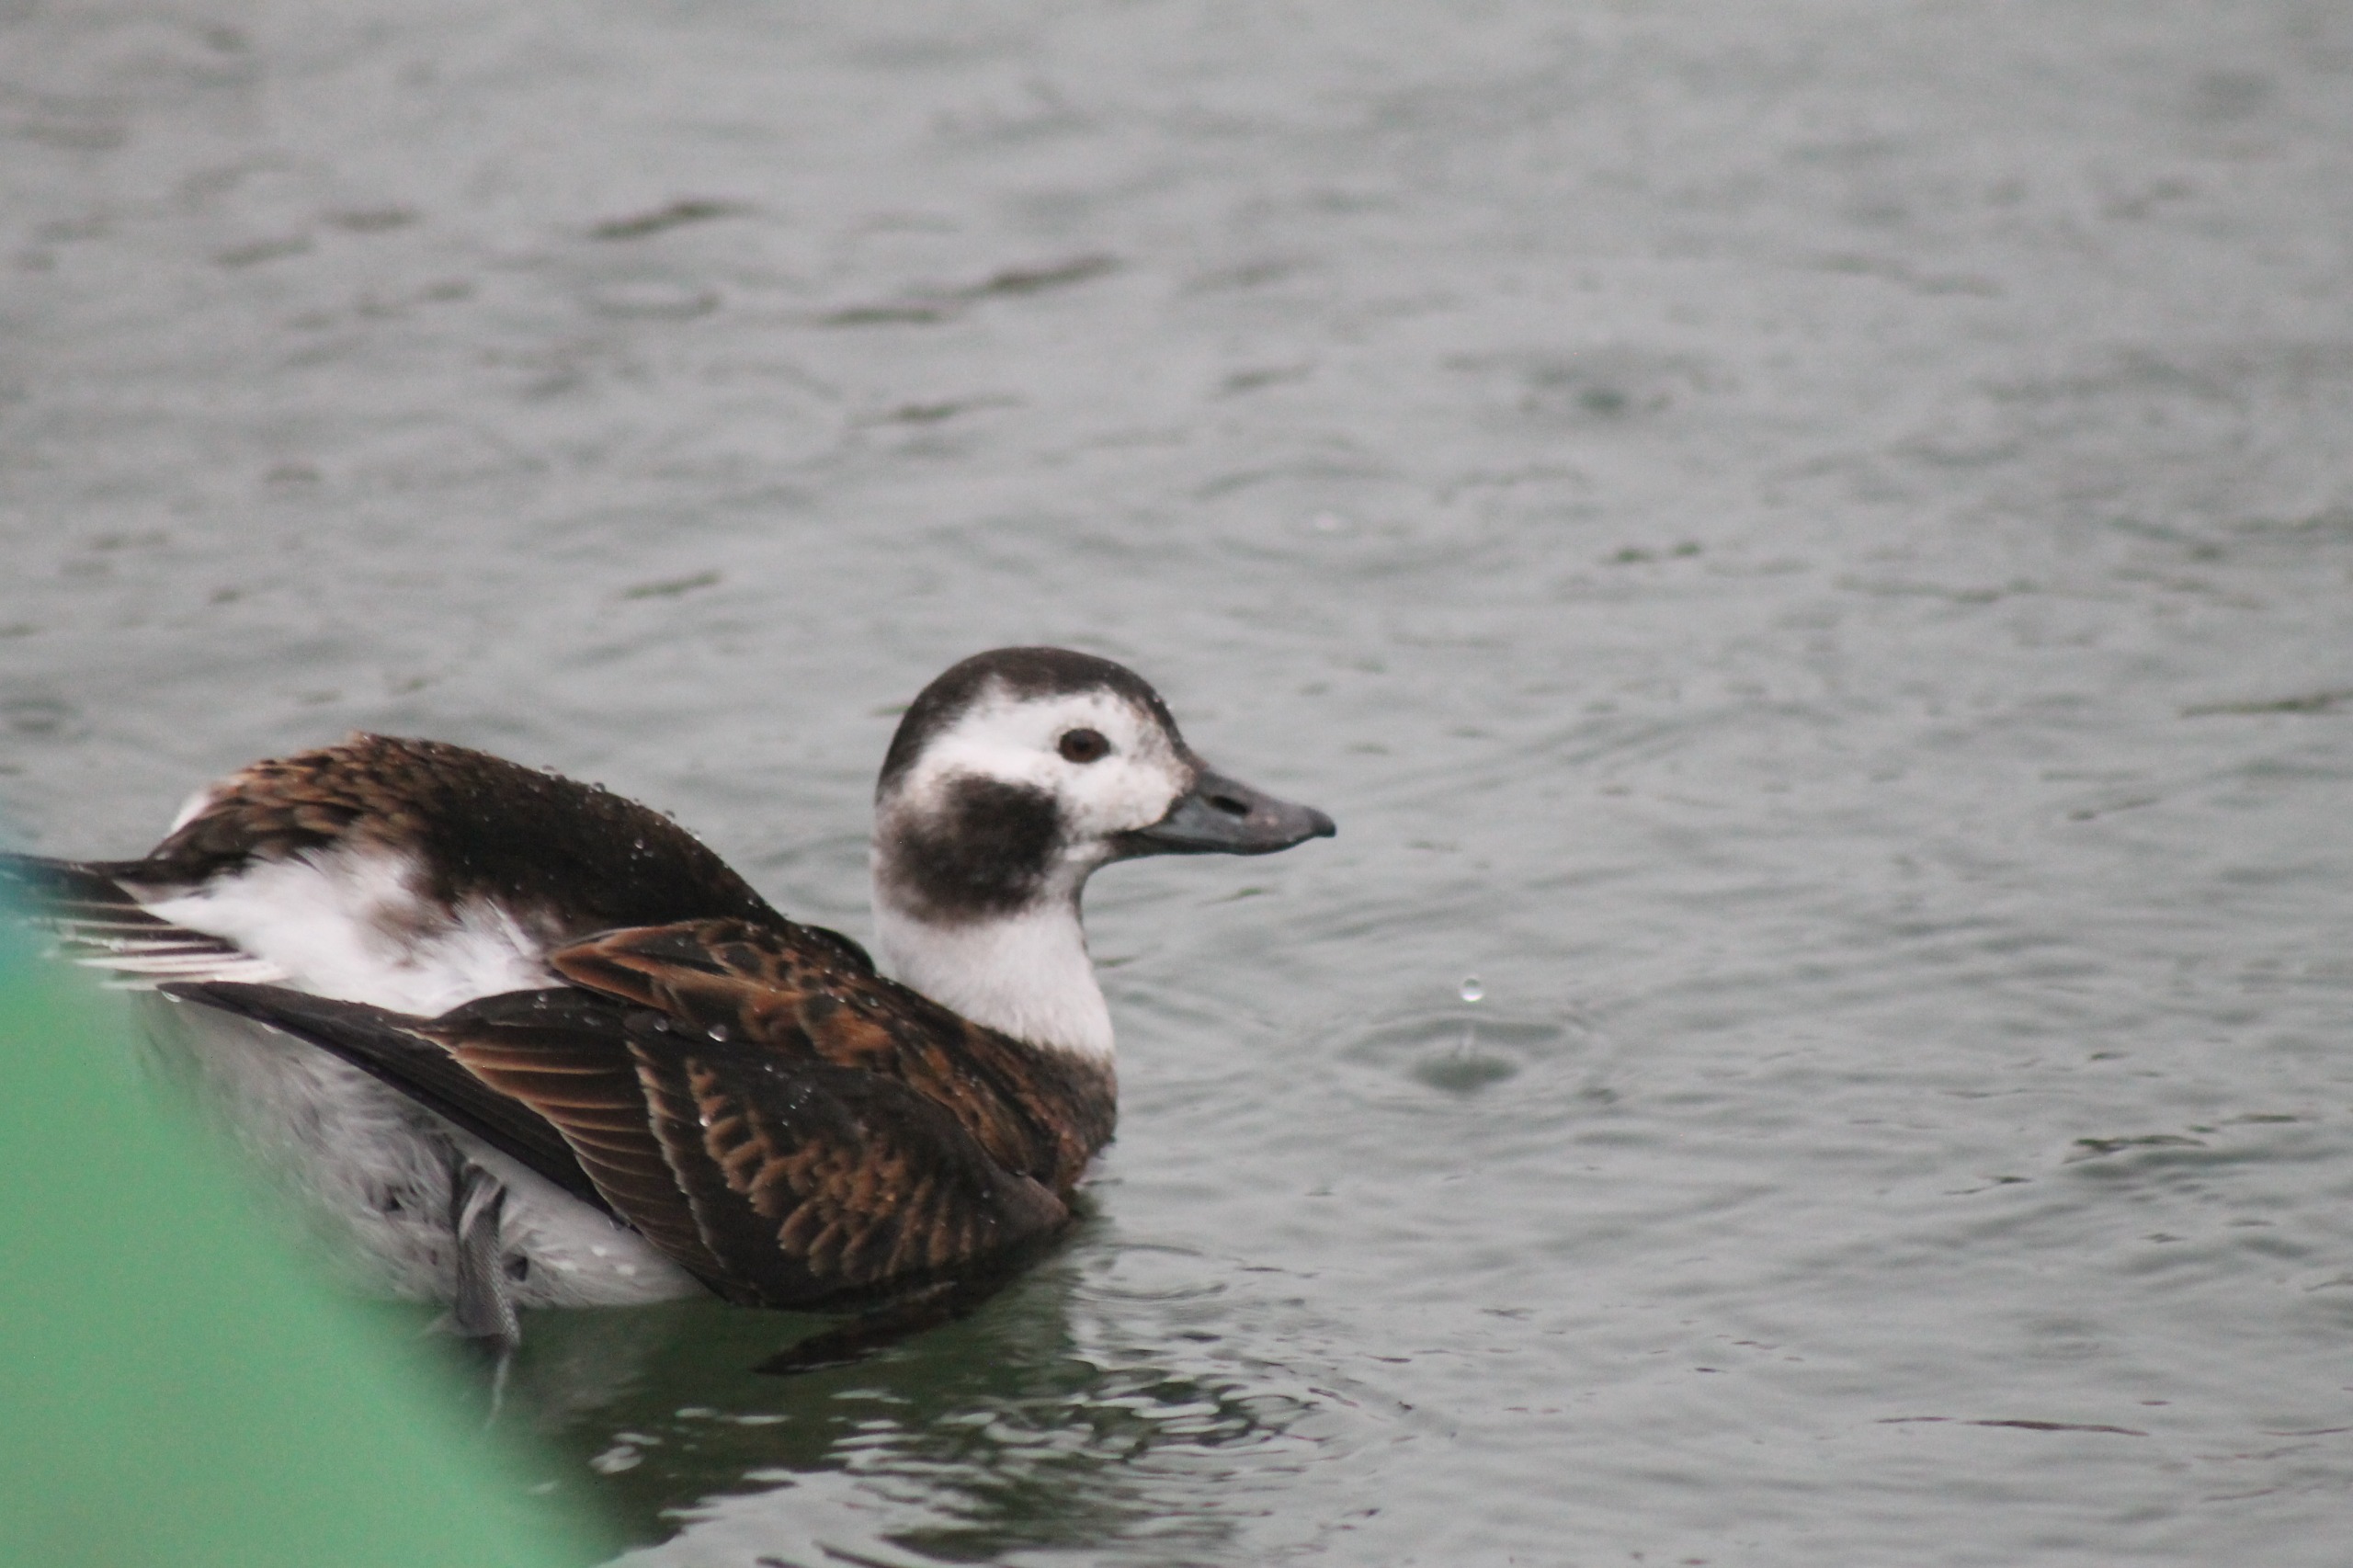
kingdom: Animalia
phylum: Chordata
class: Aves
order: Anseriformes
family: Anatidae
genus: Clangula
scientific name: Clangula hyemalis
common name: Havlit
